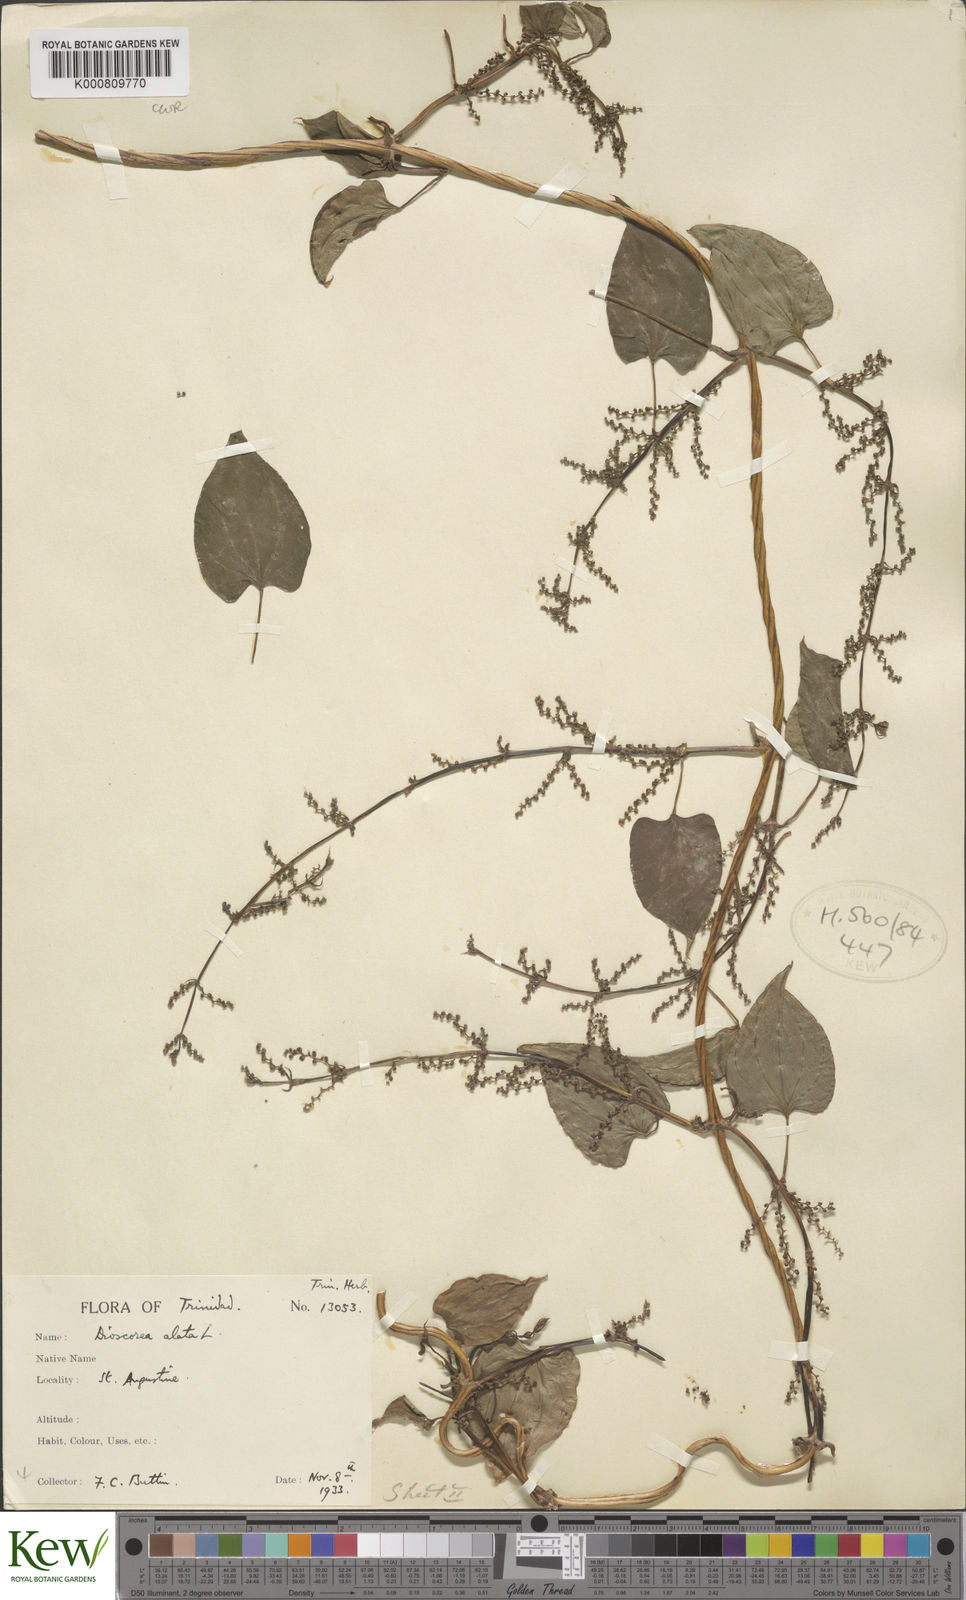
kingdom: Plantae
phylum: Tracheophyta
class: Liliopsida
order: Dioscoreales
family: Dioscoreaceae
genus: Dioscorea
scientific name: Dioscorea alata
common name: Water yam
